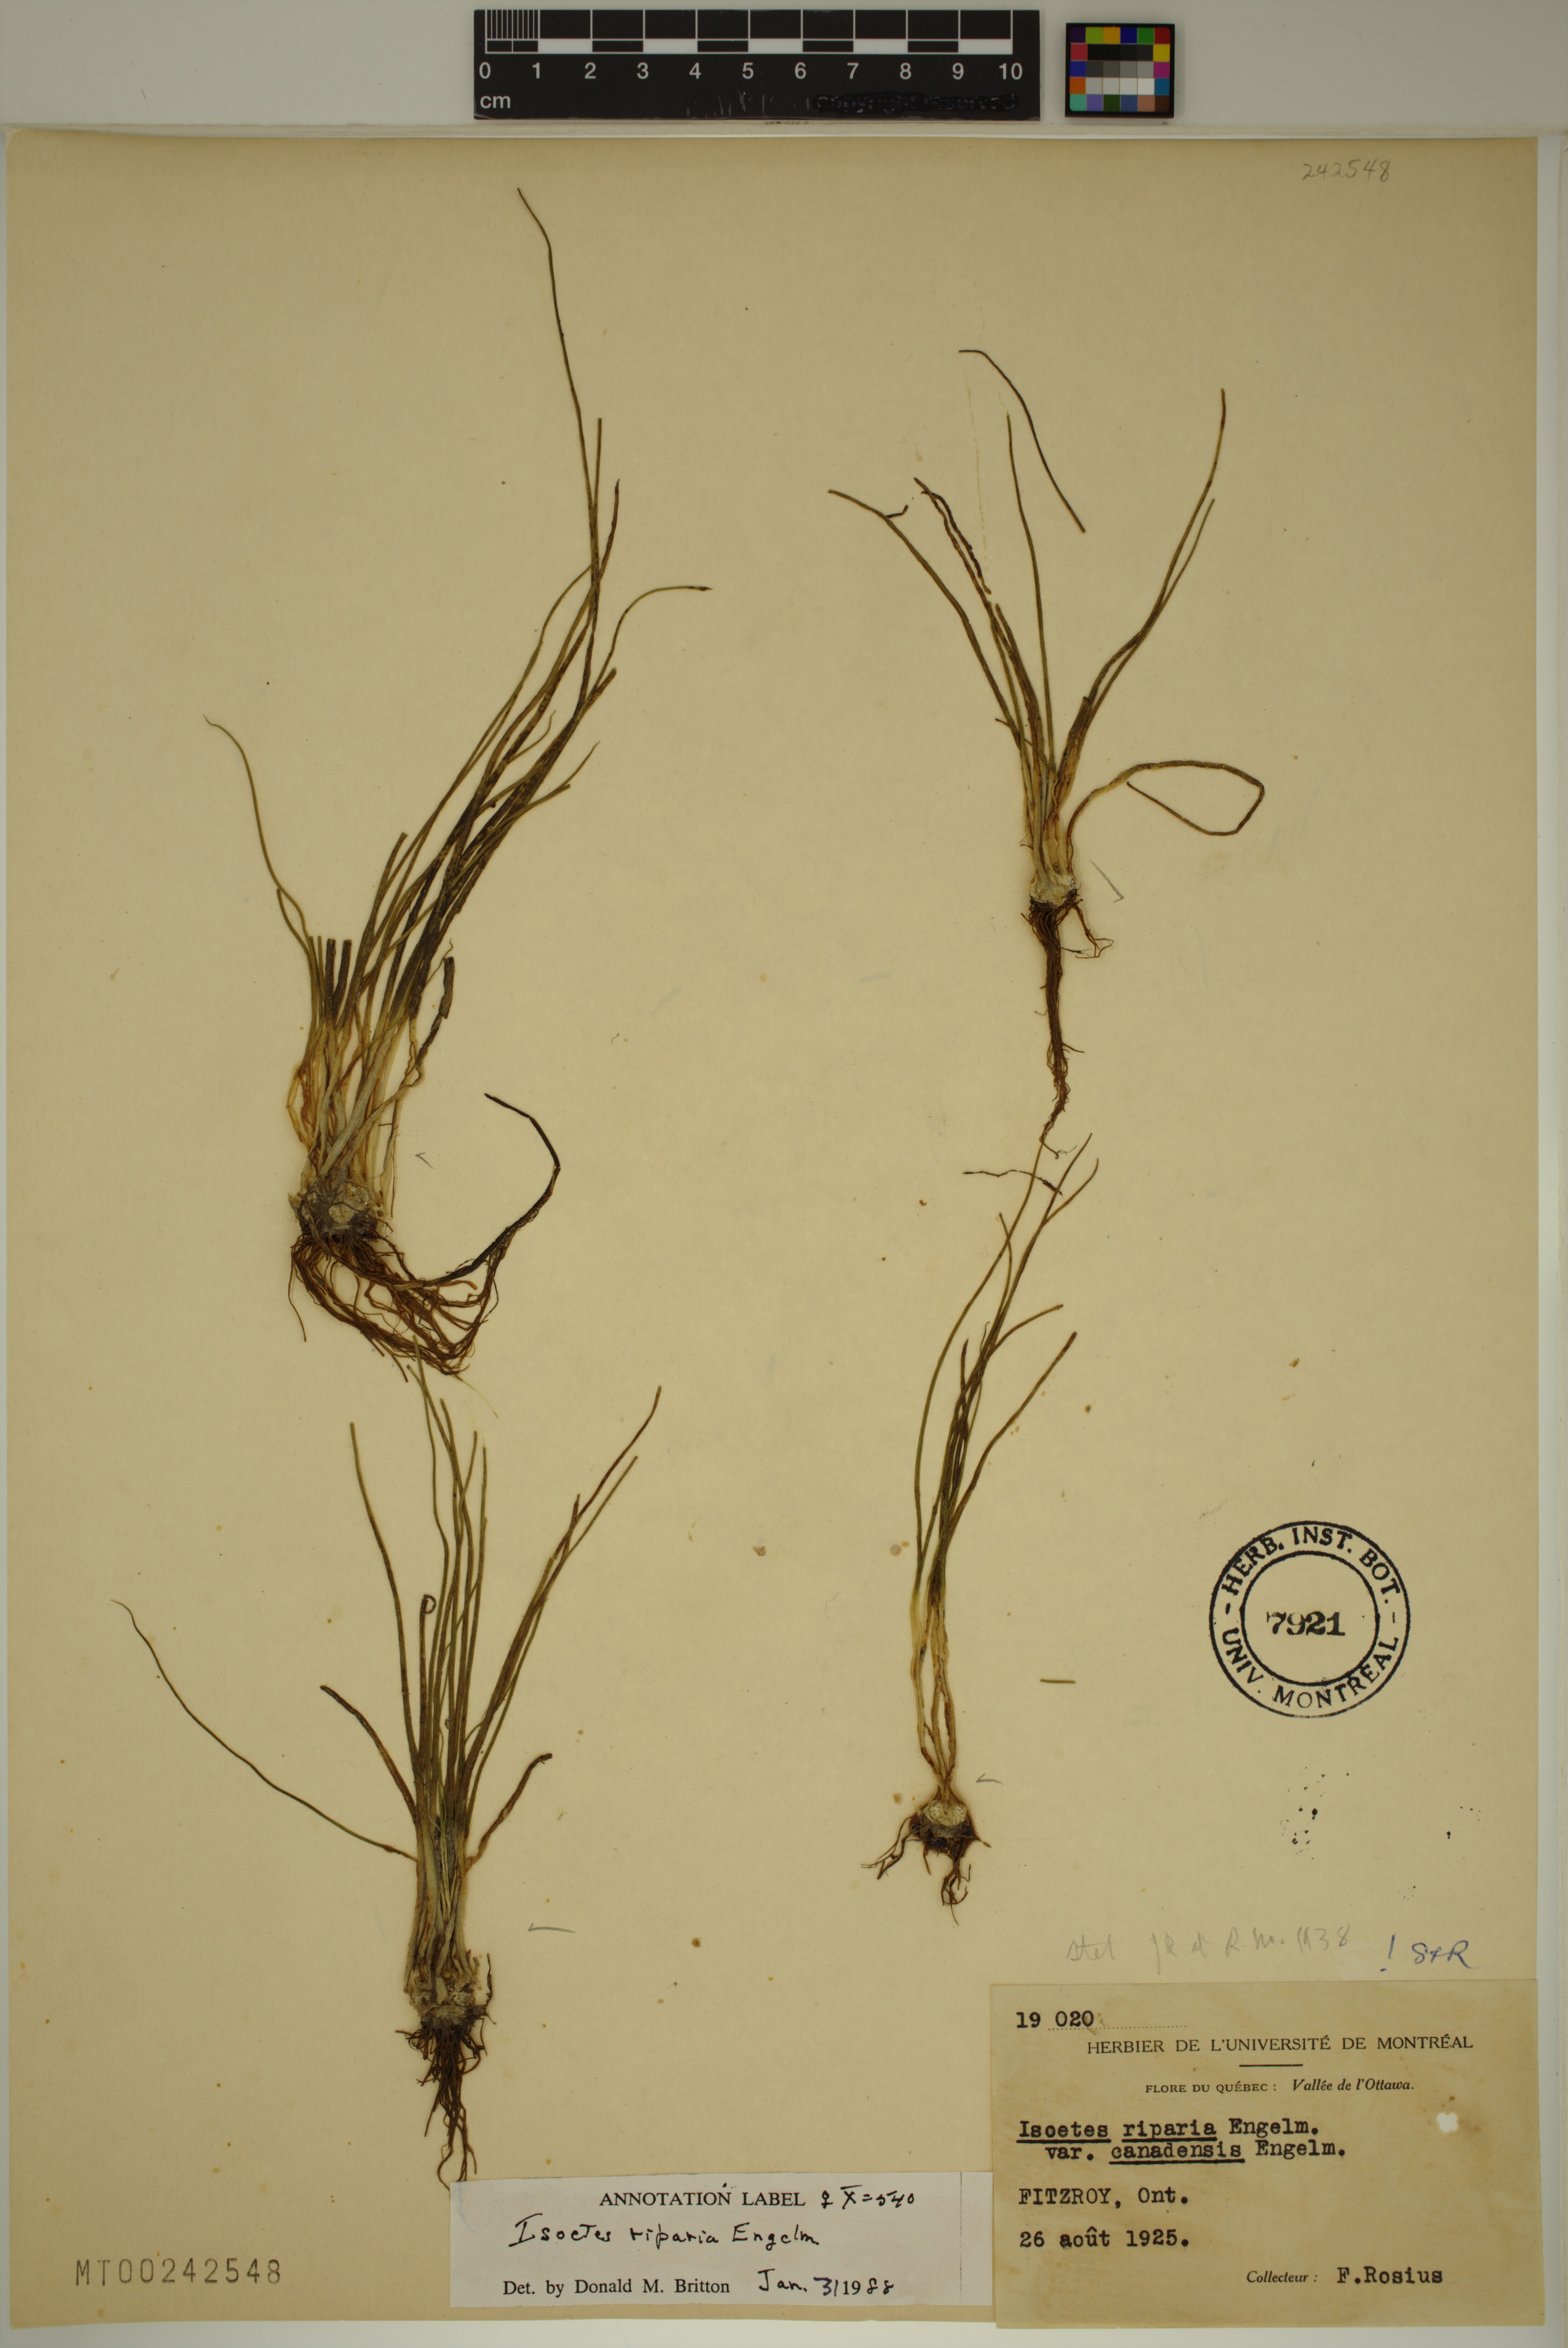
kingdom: Plantae
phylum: Tracheophyta
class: Lycopodiopsida
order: Isoetales
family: Isoetaceae
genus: Isoetes
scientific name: Isoetes septentrionalis
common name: Northern quillwort
